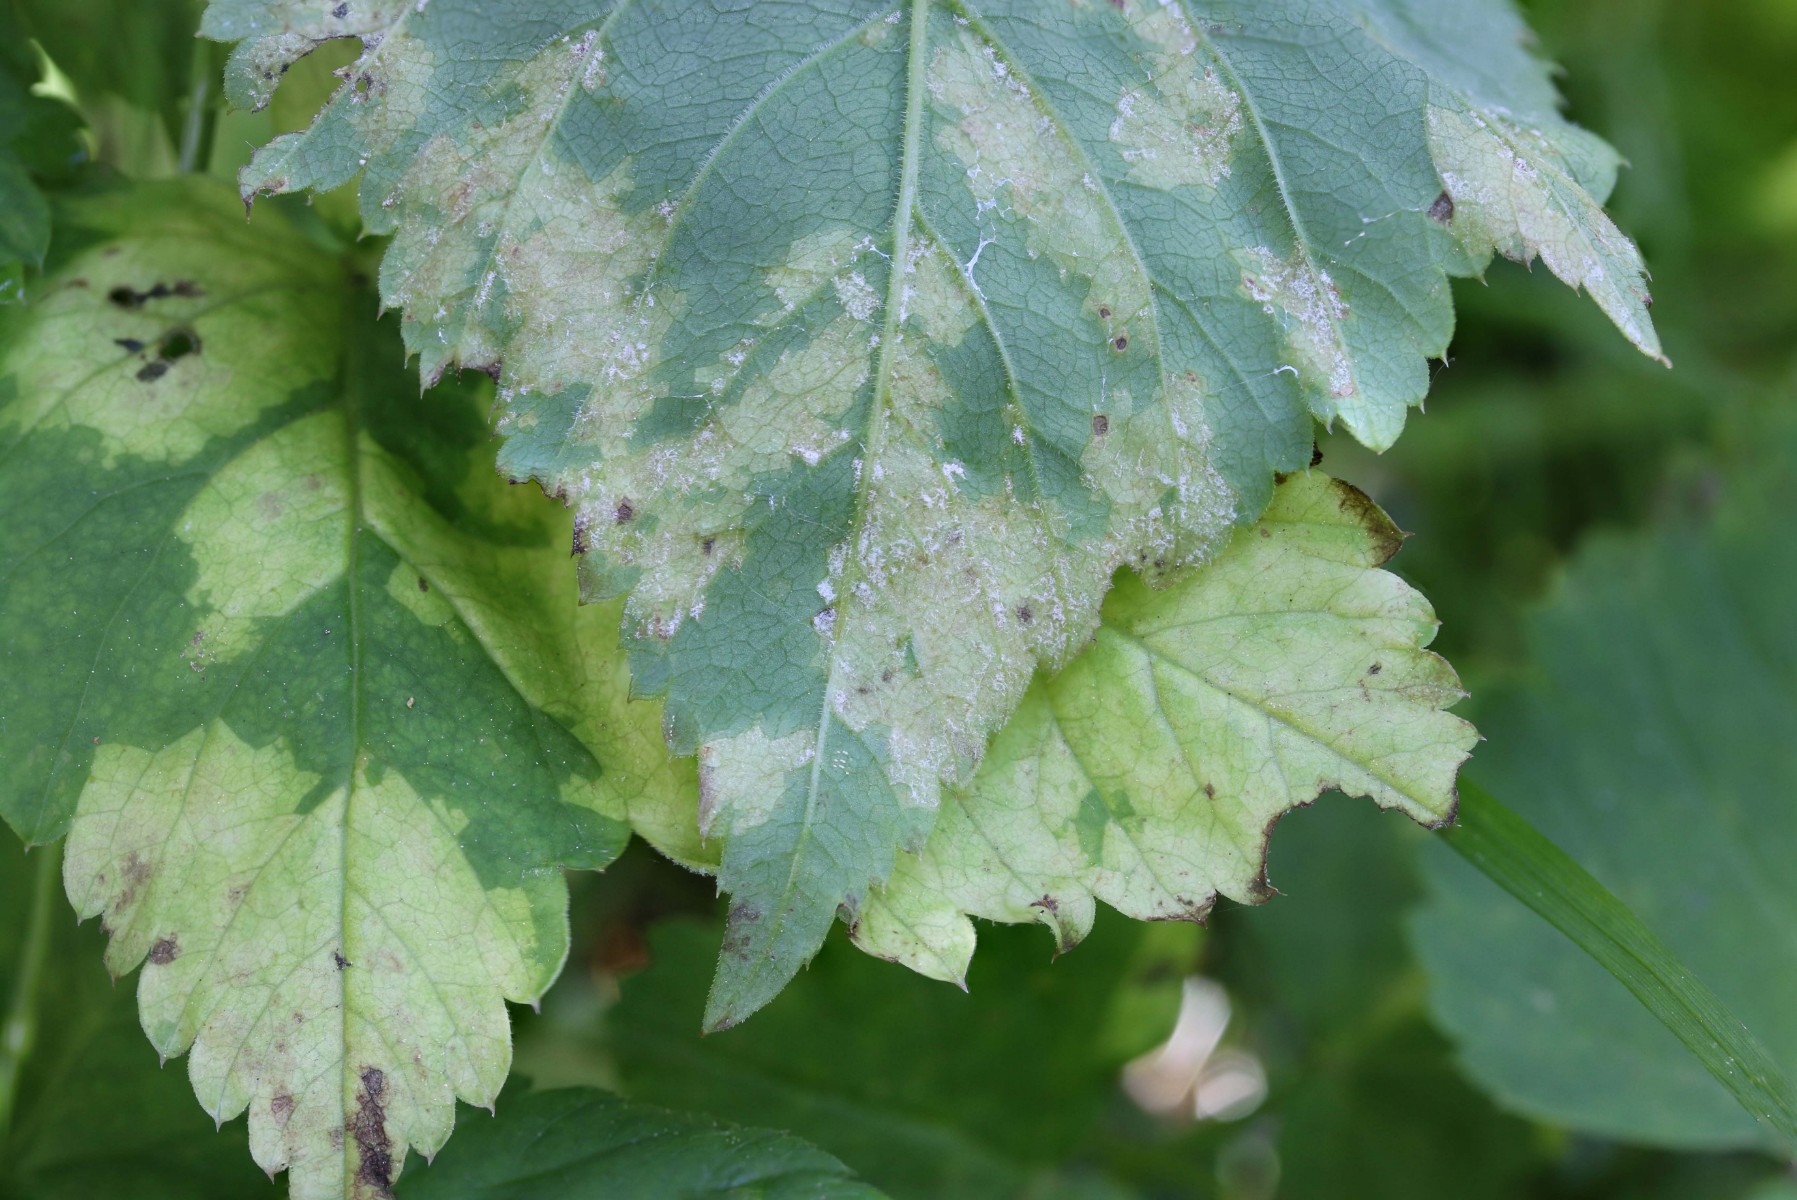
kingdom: Chromista
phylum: Oomycota
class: Peronosporea
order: Peronosporales
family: Peronosporaceae
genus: Peronospora
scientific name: Peronospora crustosa
